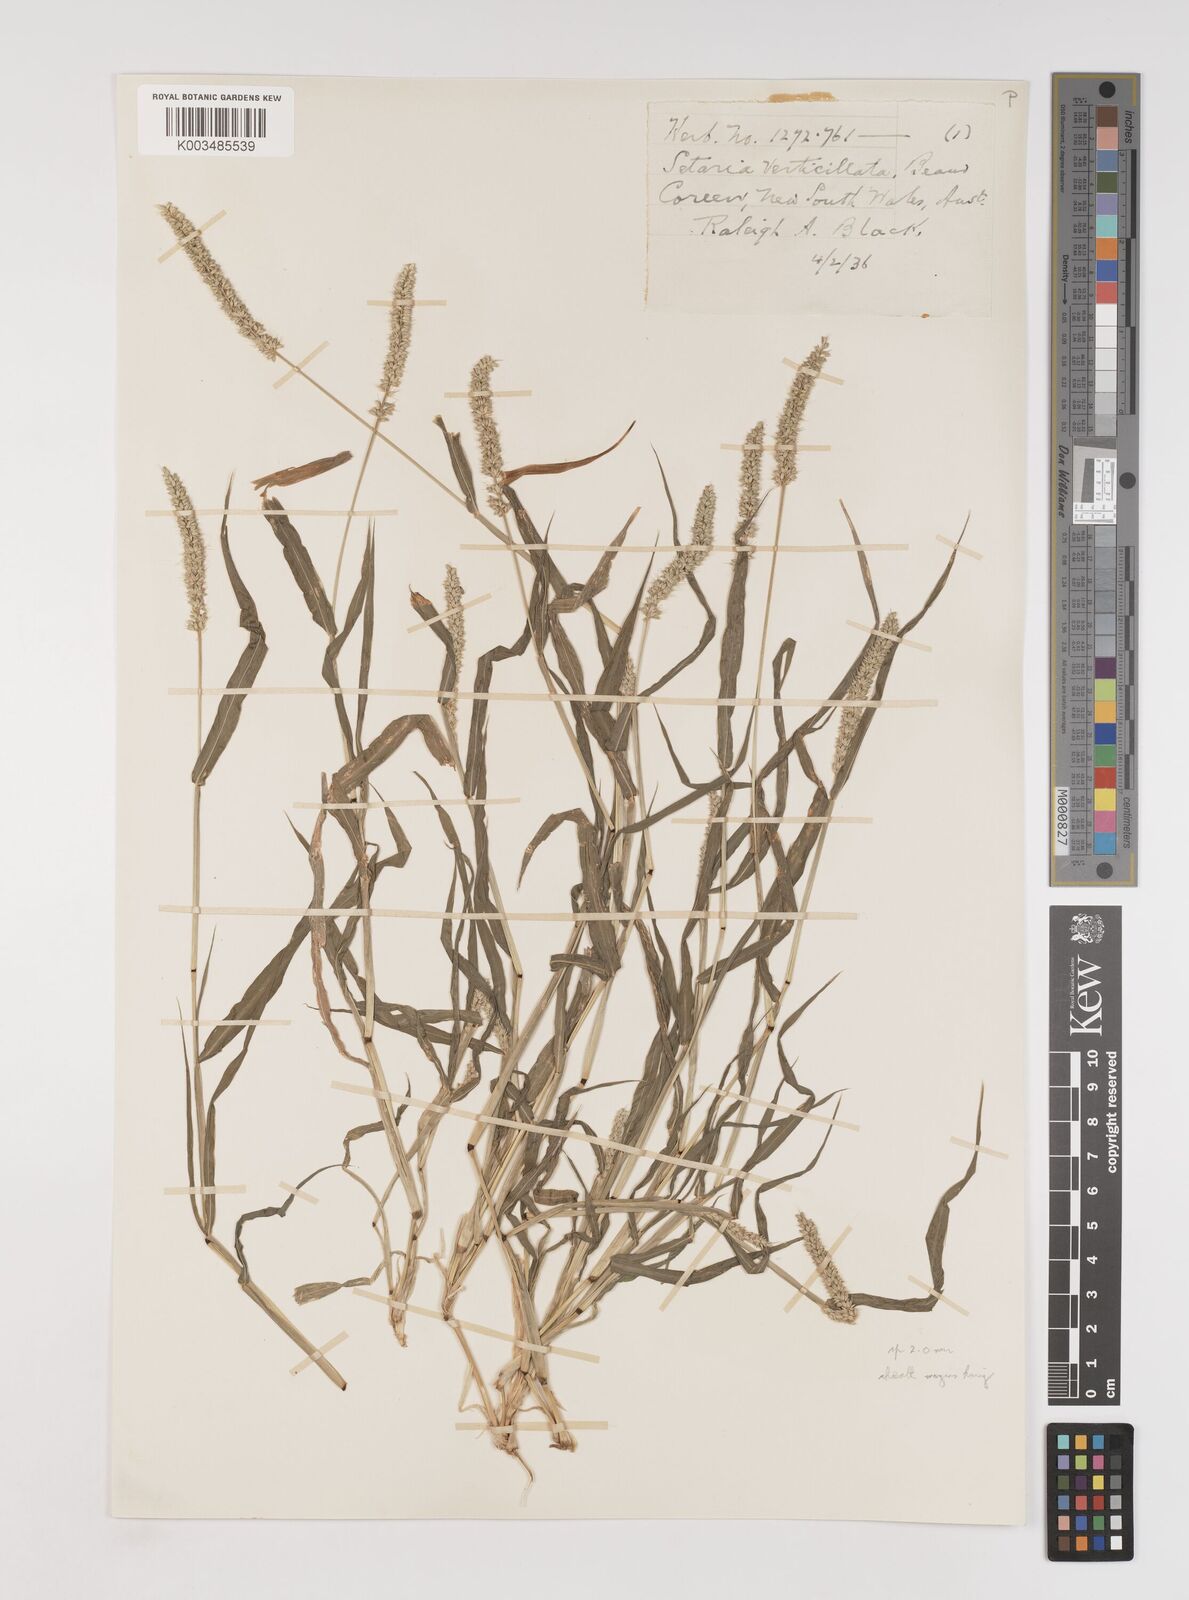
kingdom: Plantae
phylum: Tracheophyta
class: Liliopsida
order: Poales
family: Poaceae
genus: Setaria
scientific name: Setaria verticillata
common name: Hooked bristlegrass
